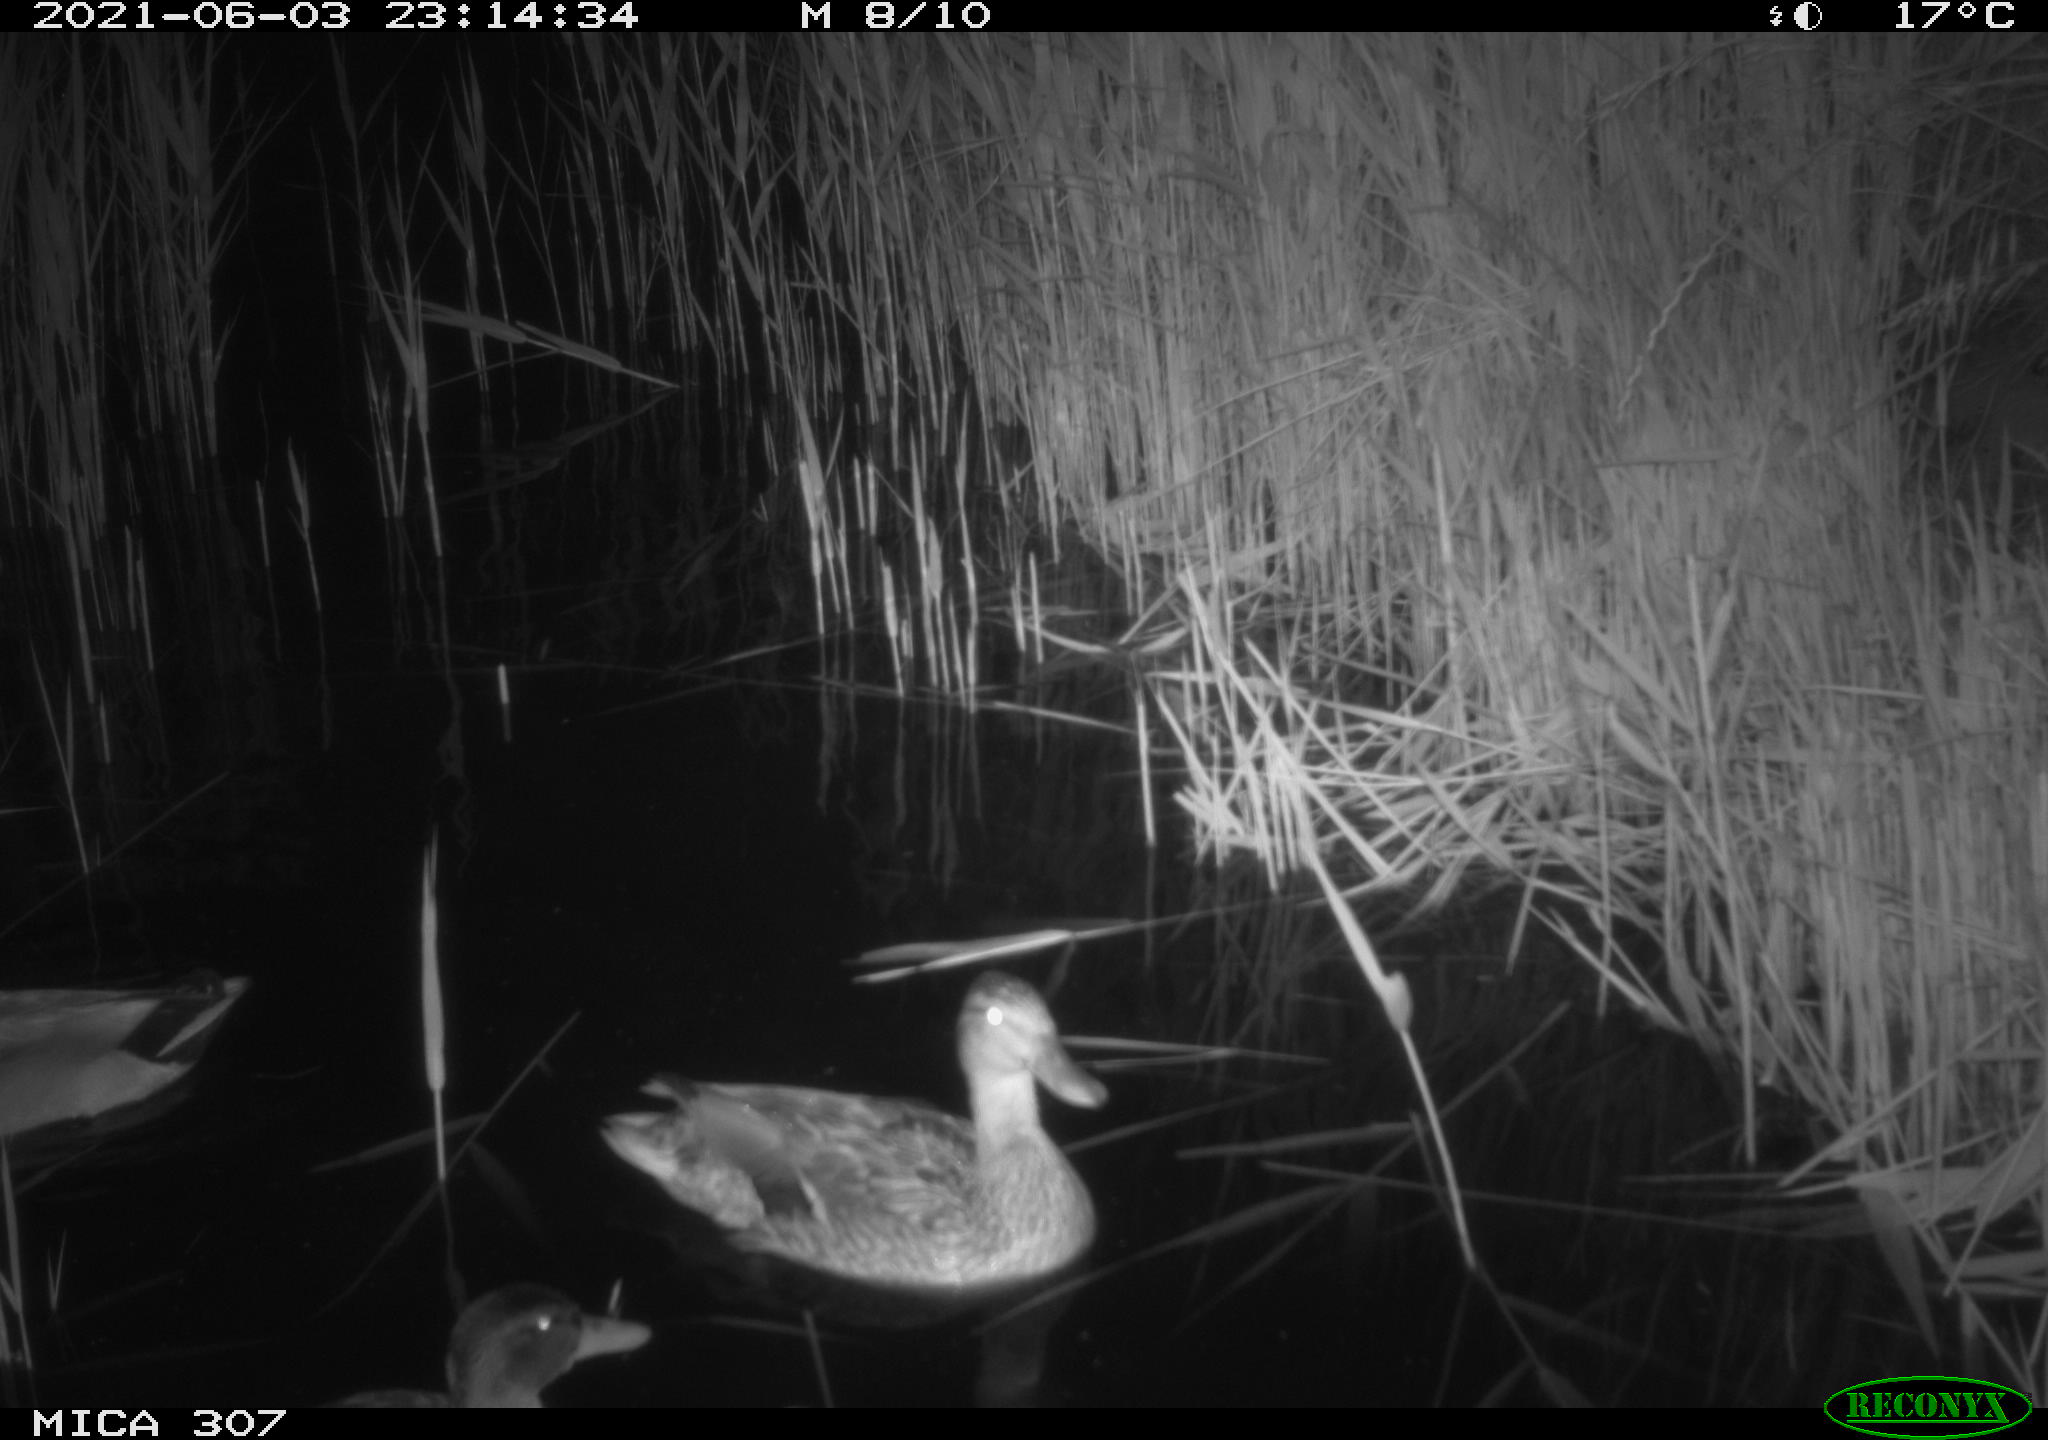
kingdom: Animalia
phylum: Chordata
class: Aves
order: Anseriformes
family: Anatidae
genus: Mareca
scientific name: Mareca strepera
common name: Gadwall
